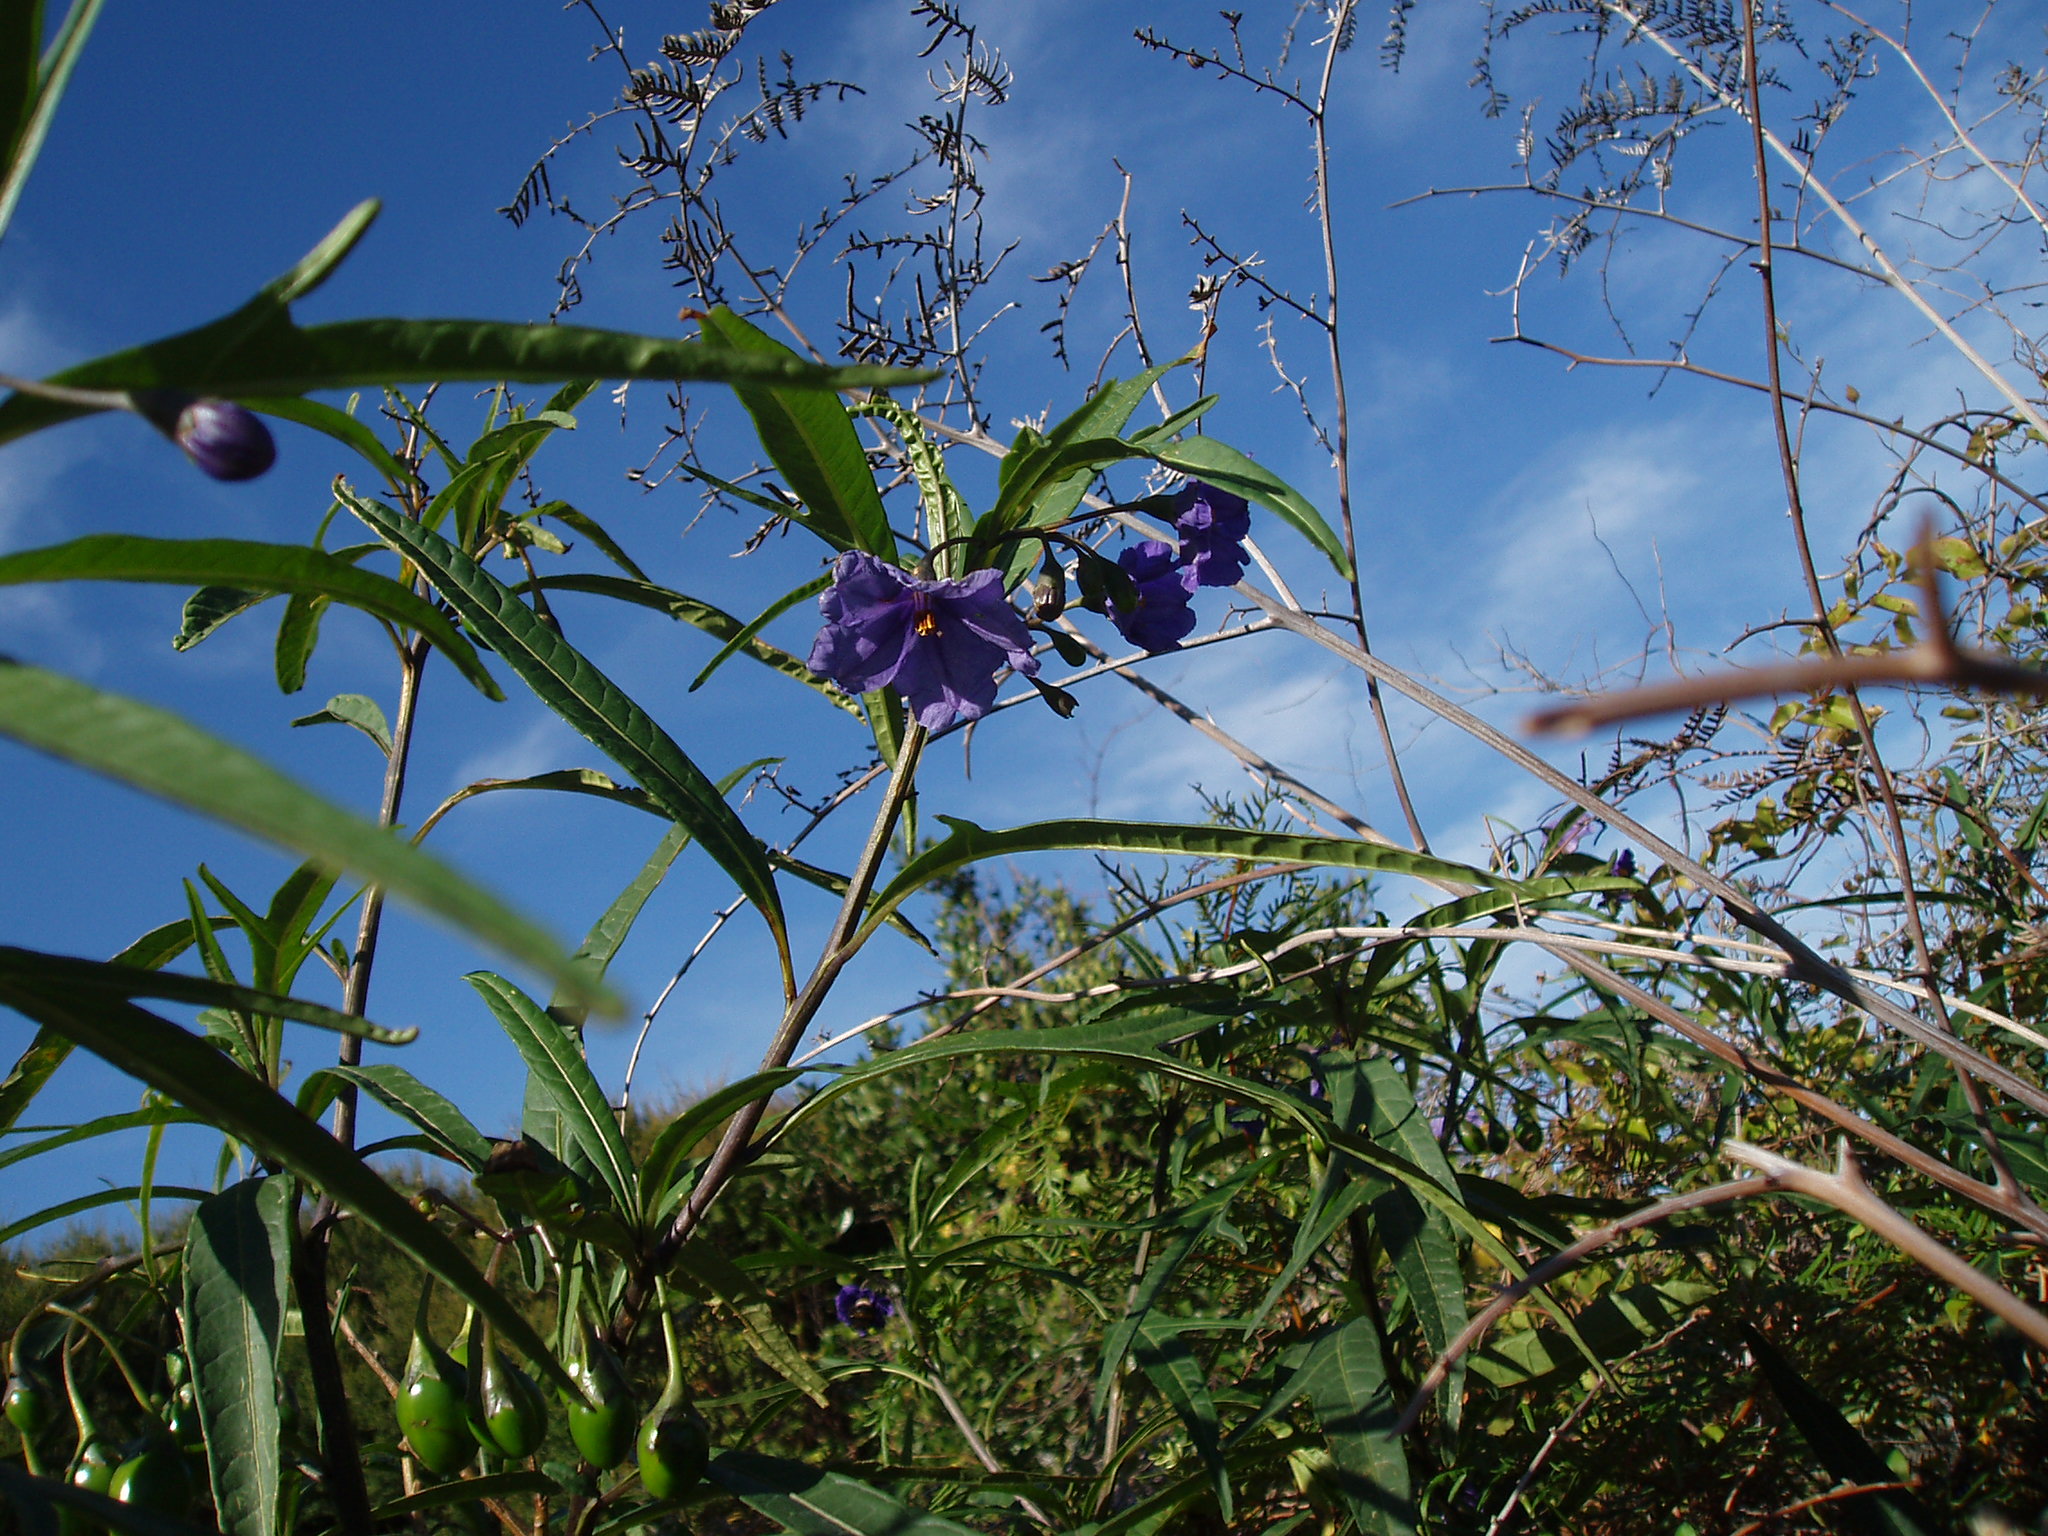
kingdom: Plantae
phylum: Tracheophyta
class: Magnoliopsida
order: Solanales
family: Solanaceae
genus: Solanum
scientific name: Solanum laciniatum
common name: Kangaroo-apple
